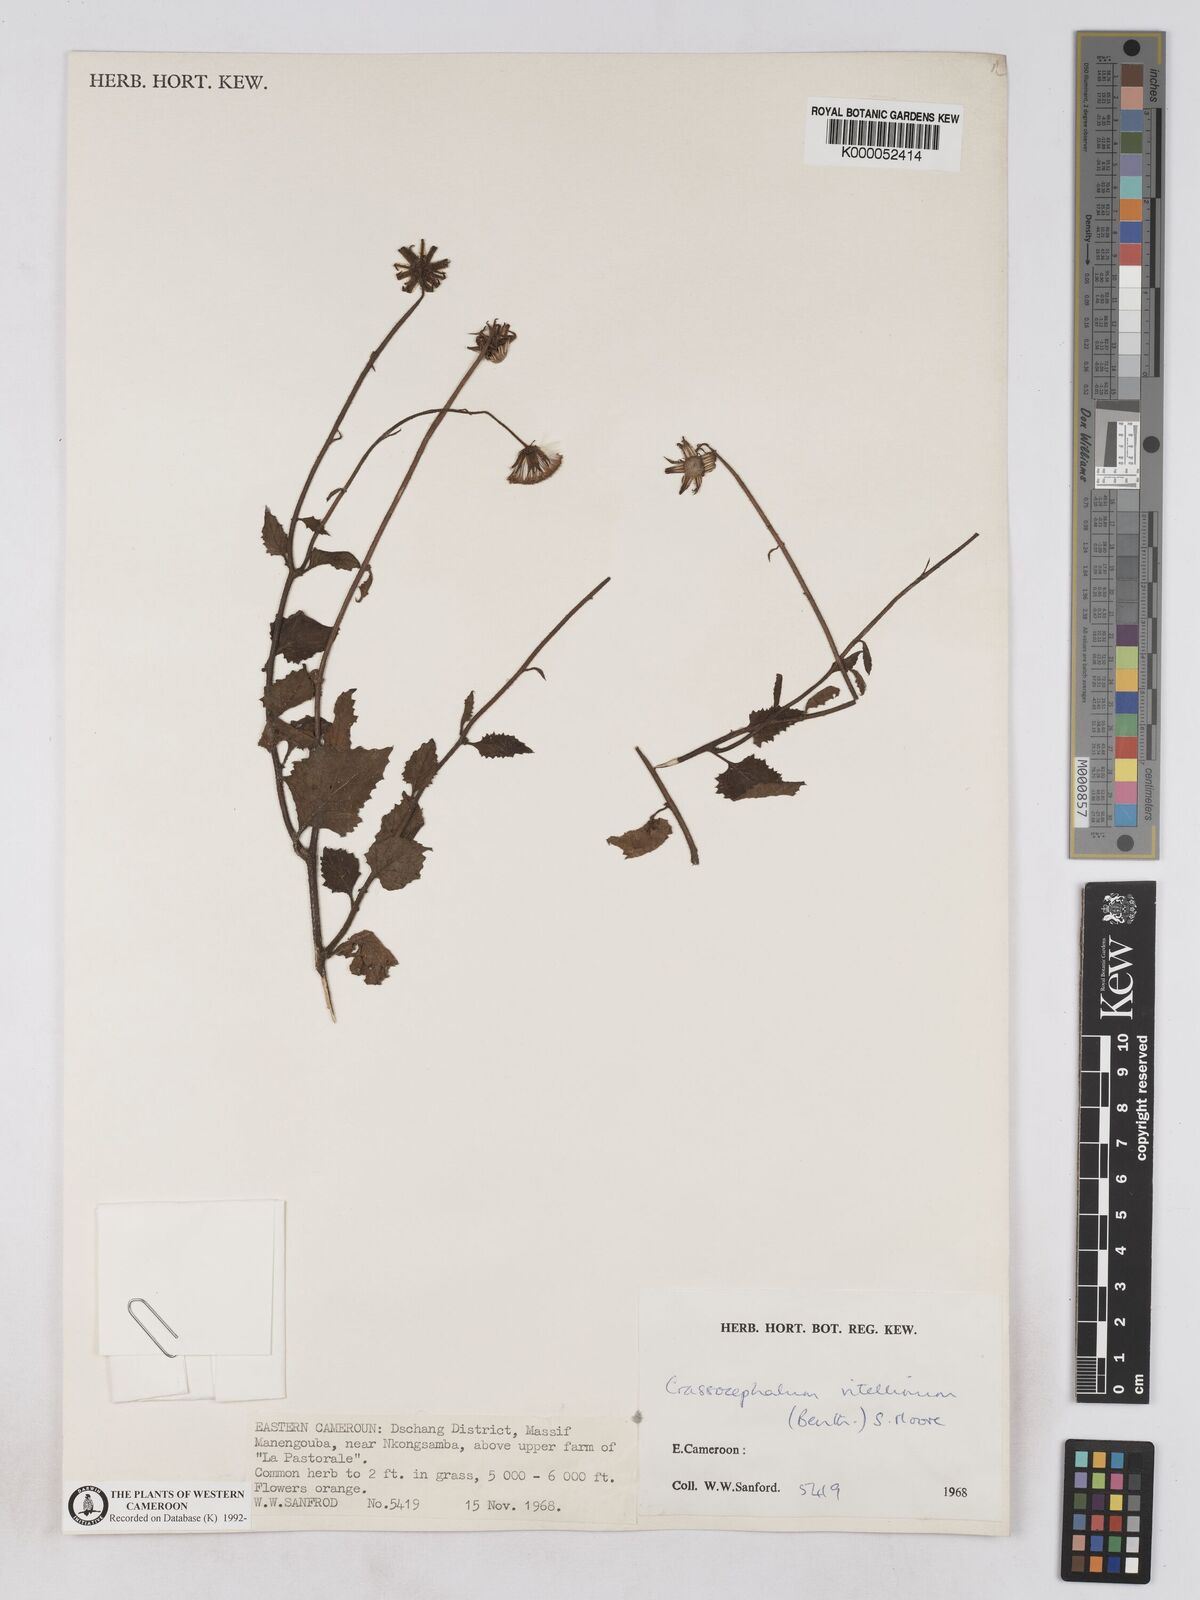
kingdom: Plantae
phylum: Tracheophyta
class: Magnoliopsida
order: Asterales
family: Asteraceae
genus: Crassocephalum
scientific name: Crassocephalum vitellinum
